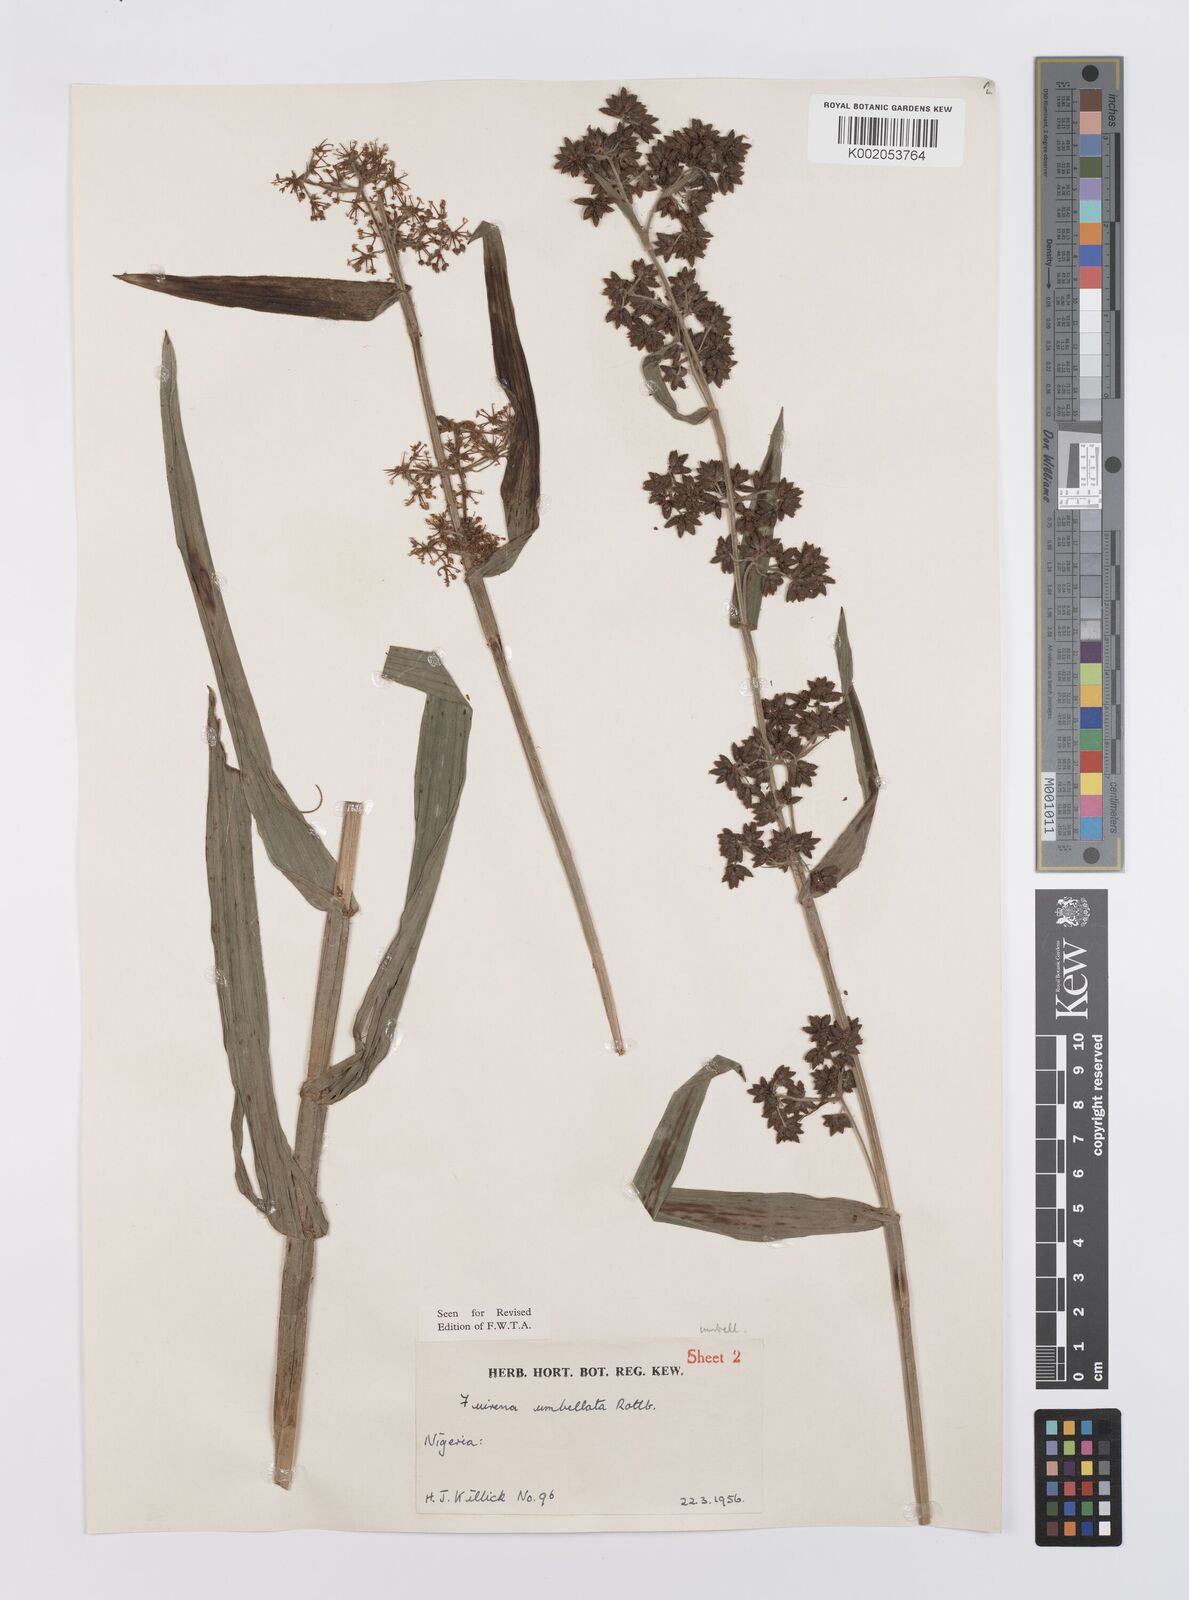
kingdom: Plantae
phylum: Tracheophyta
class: Liliopsida
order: Poales
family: Cyperaceae
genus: Fuirena
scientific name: Fuirena umbellata
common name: Yefen
